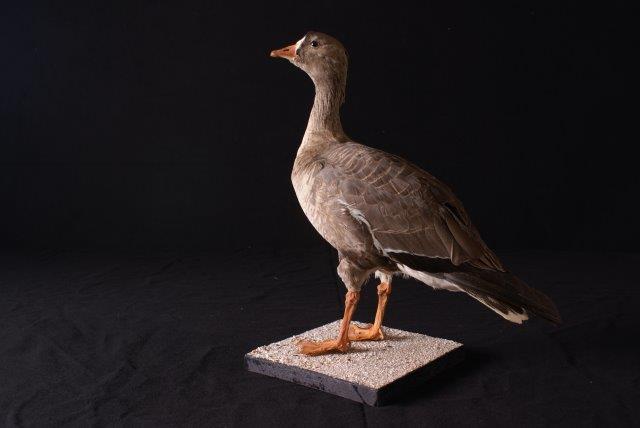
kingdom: Animalia
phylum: Chordata
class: Aves
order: Anseriformes
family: Anatidae
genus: Anser
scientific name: Anser erythropus
